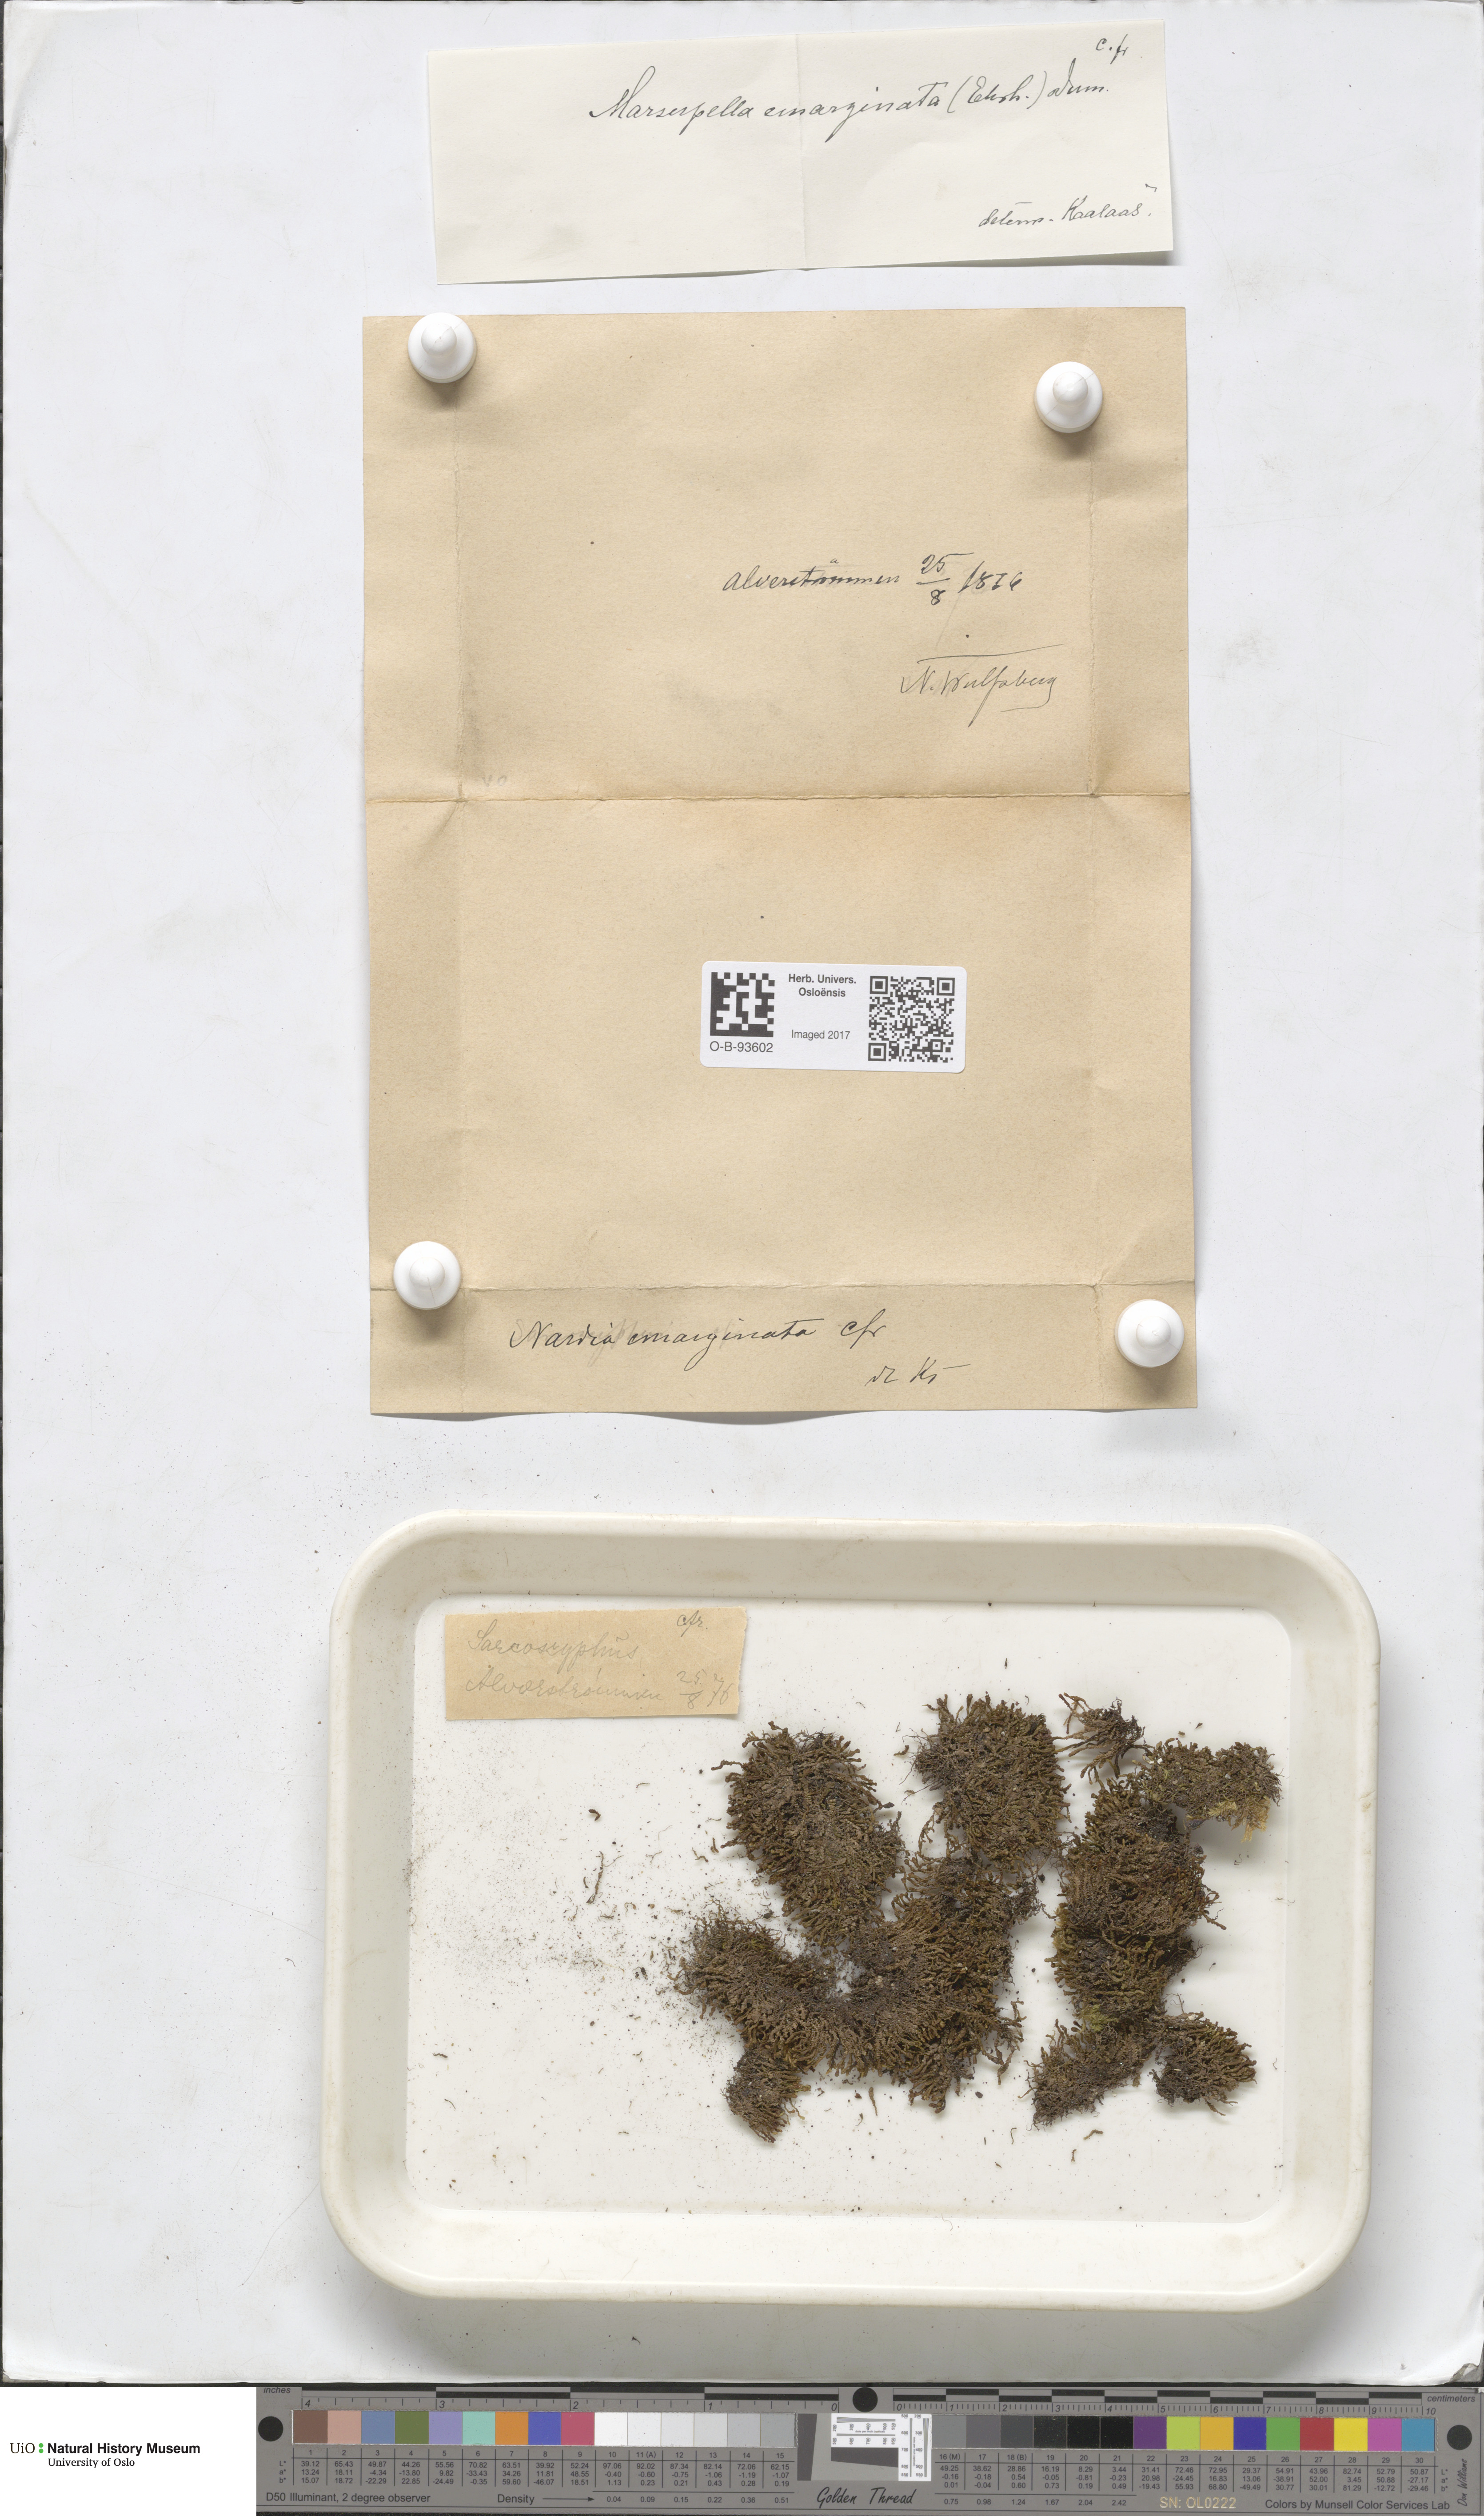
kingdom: Plantae
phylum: Marchantiophyta
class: Jungermanniopsida
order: Jungermanniales
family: Gymnomitriaceae
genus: Marsupella
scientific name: Marsupella emarginata
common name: Notched rustwort
